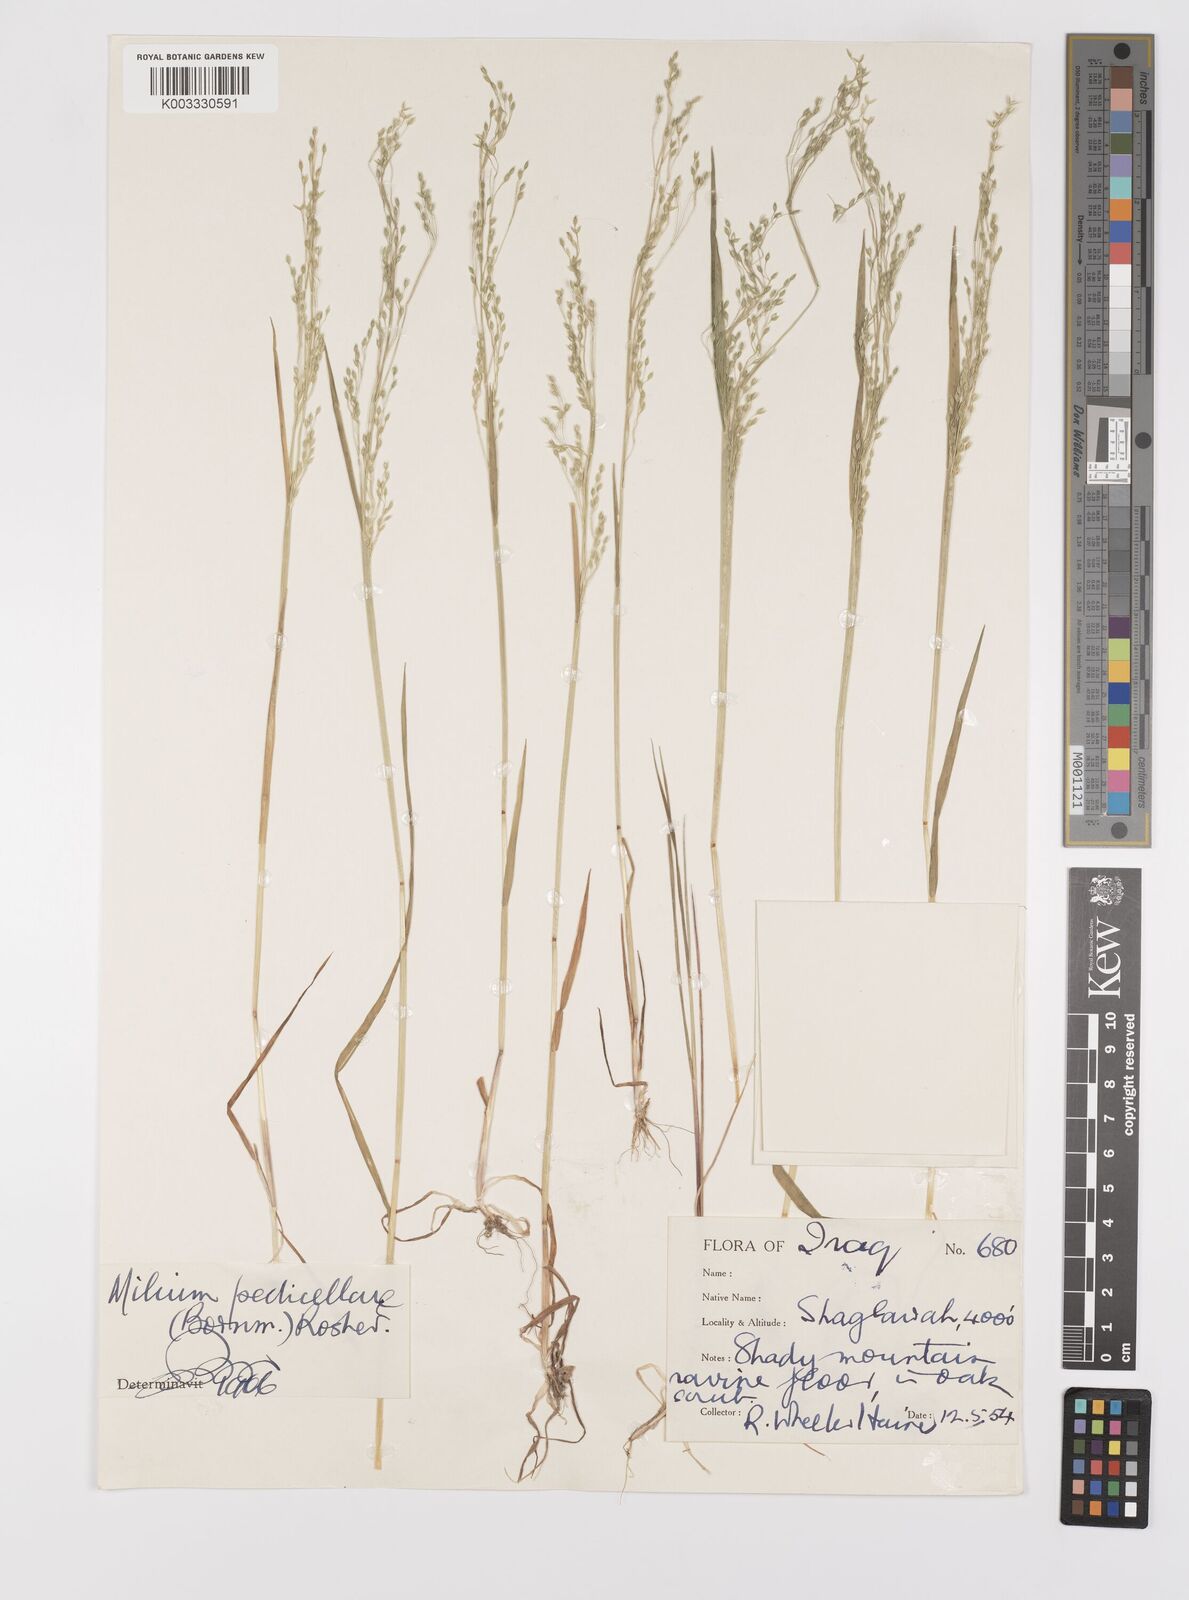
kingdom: Plantae
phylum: Tracheophyta
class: Liliopsida
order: Poales
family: Poaceae
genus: Milium
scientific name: Milium pedicellare
